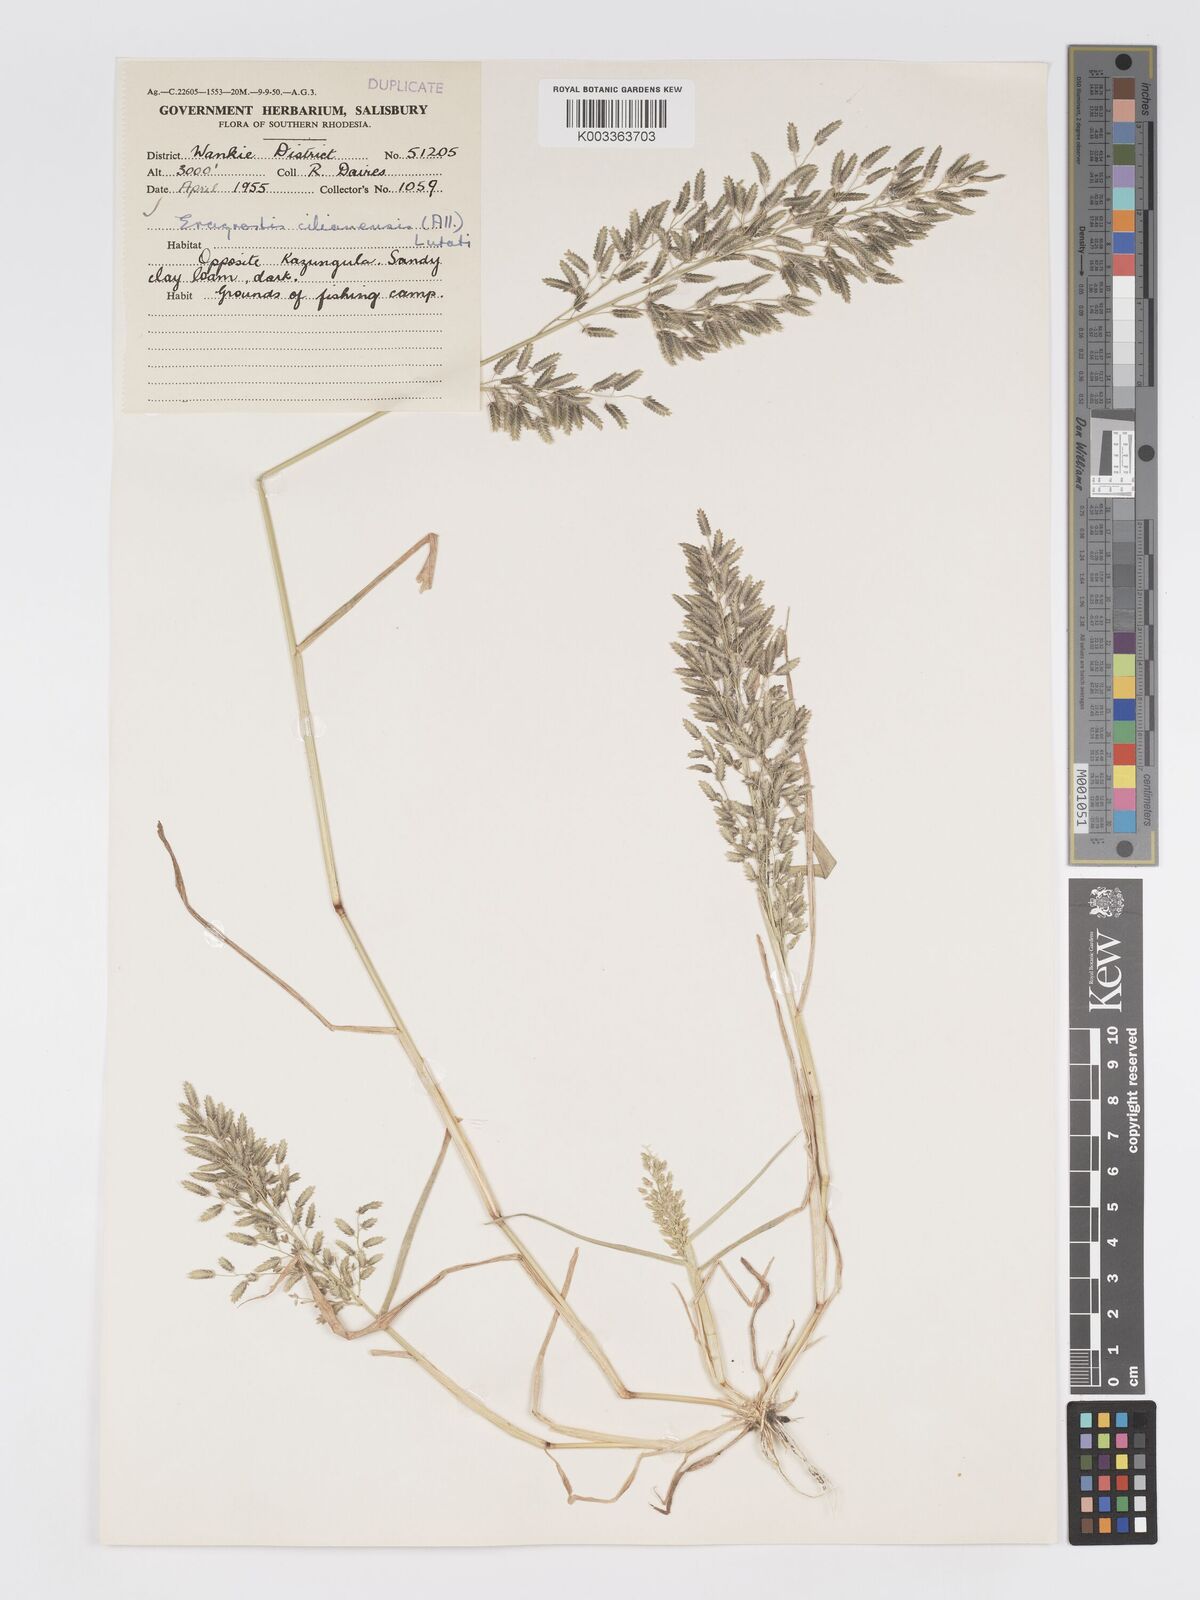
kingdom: Plantae
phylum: Tracheophyta
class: Liliopsida
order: Poales
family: Poaceae
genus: Eragrostis
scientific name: Eragrostis cilianensis
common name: Stinkgrass
